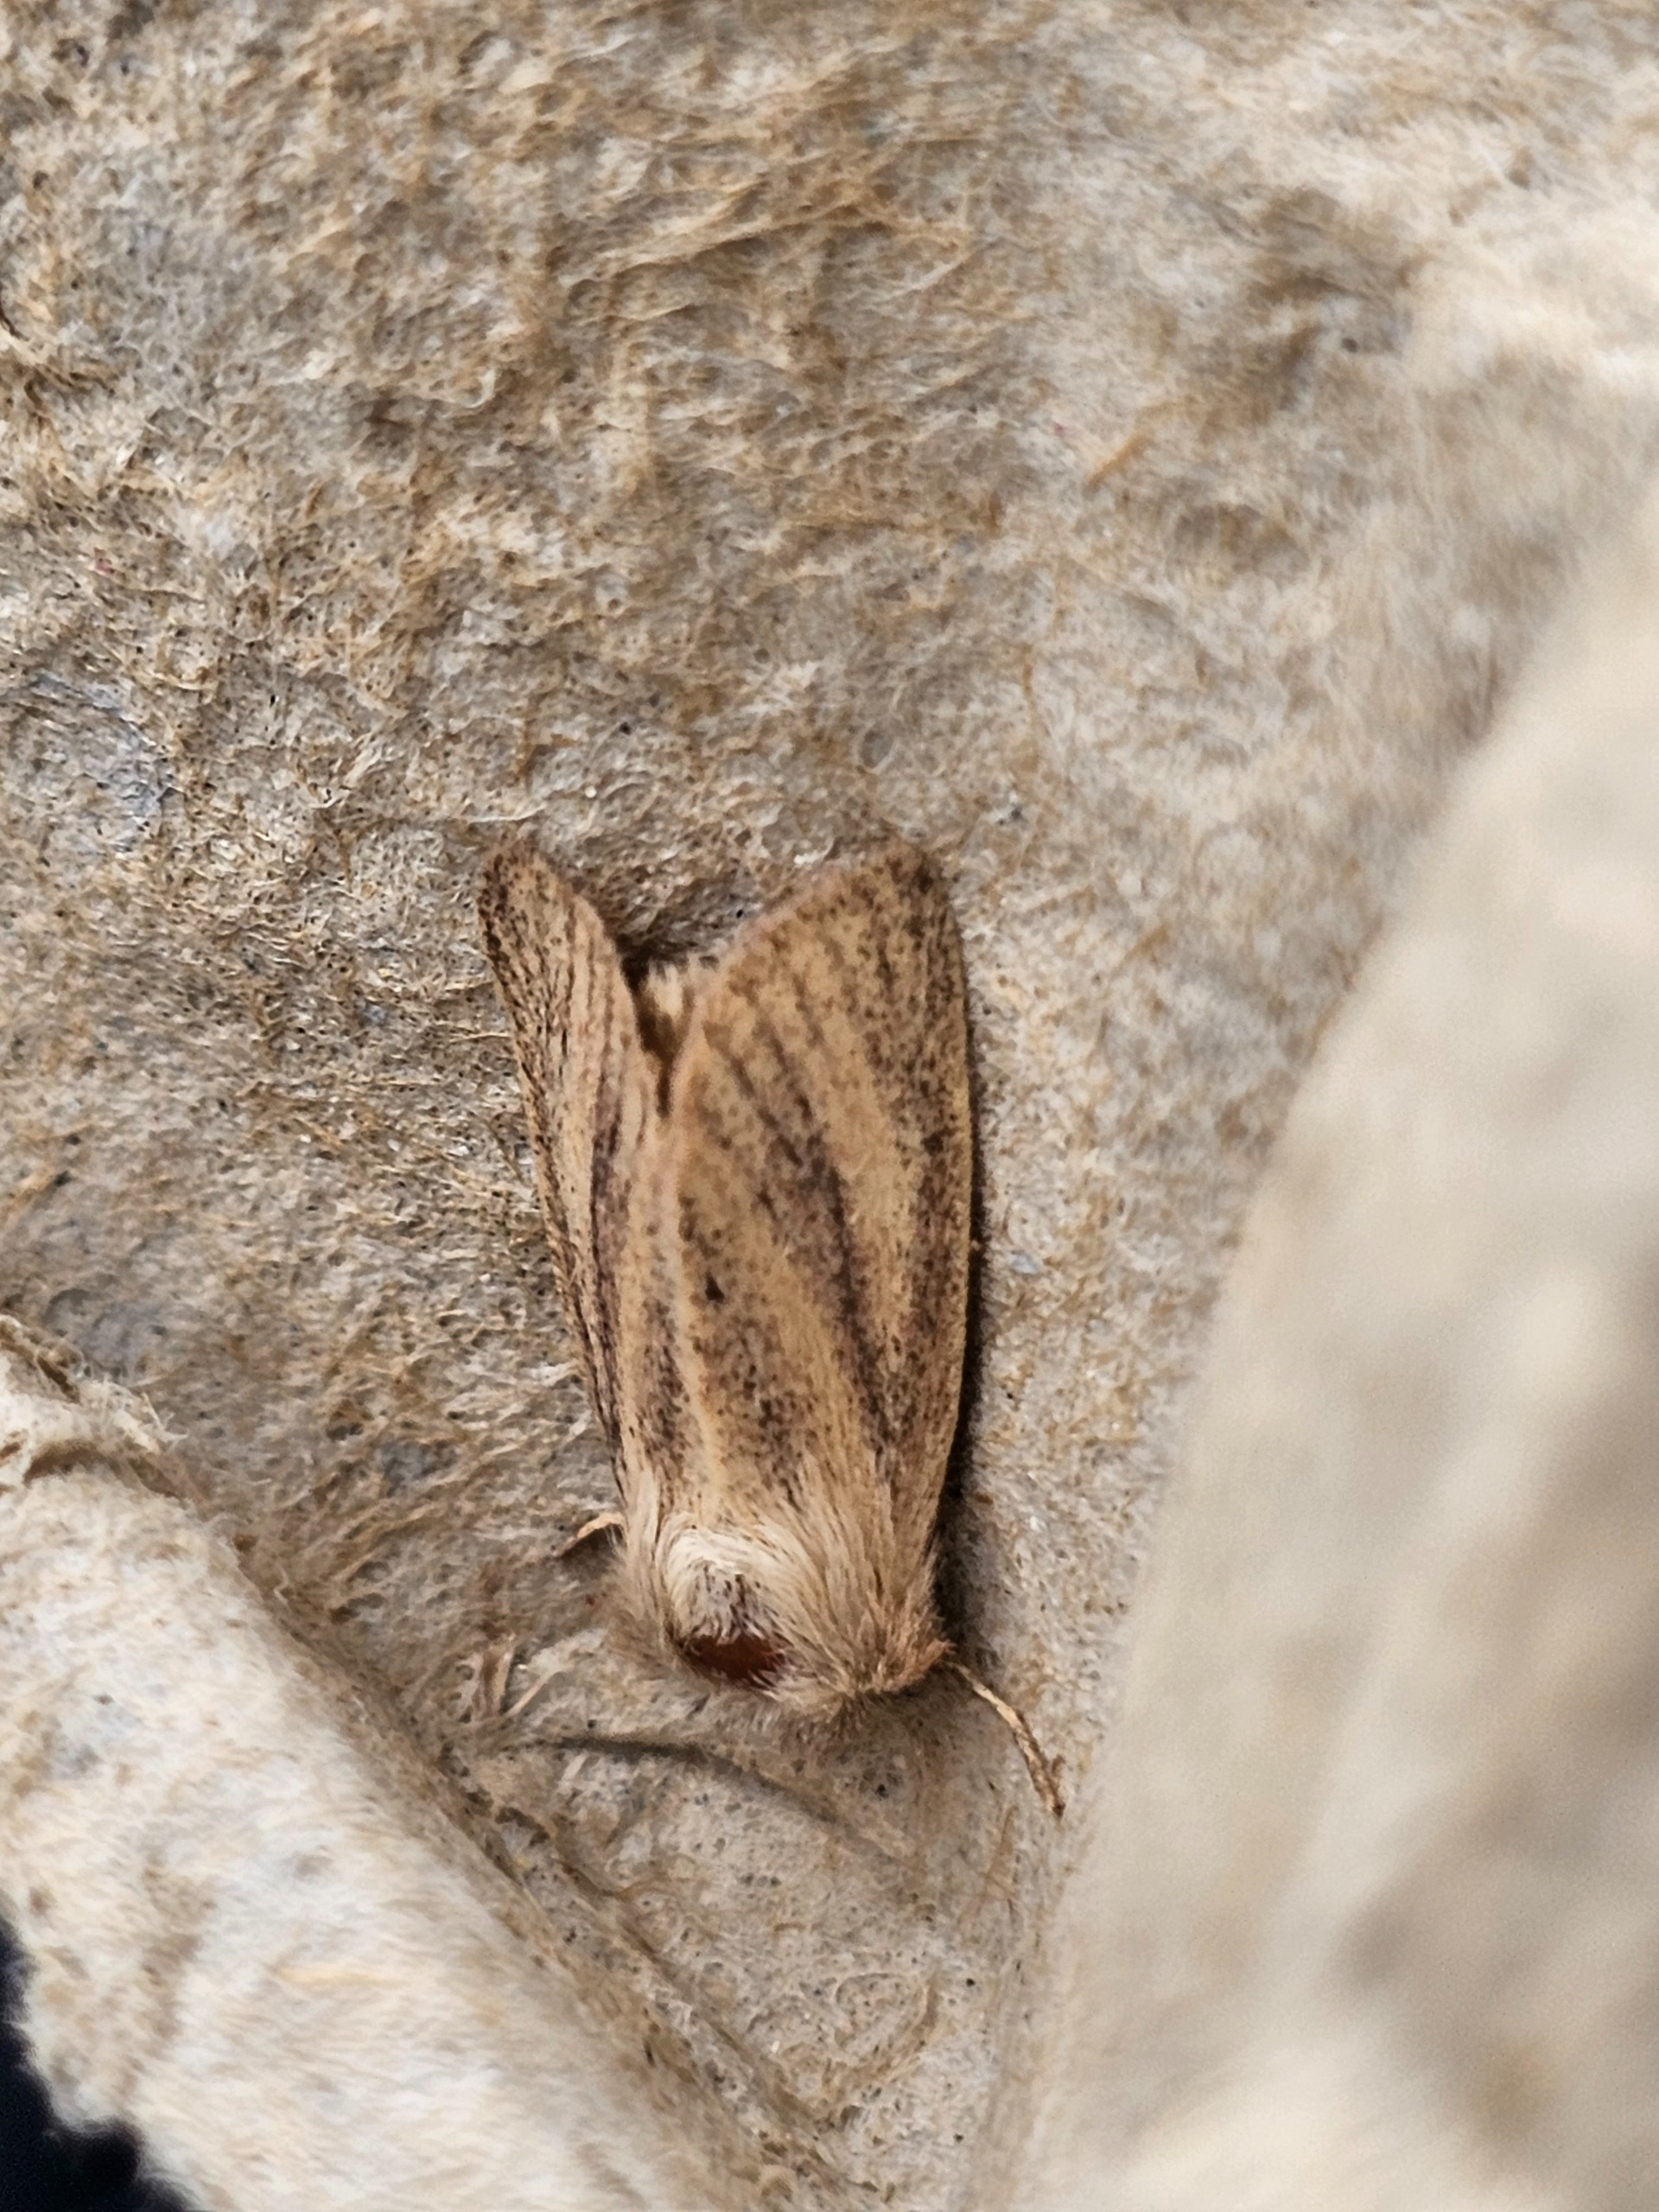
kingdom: Animalia
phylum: Arthropoda
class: Insecta
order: Lepidoptera
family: Noctuidae
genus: Denticucullus
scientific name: Denticucullus pygmina
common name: Lille starugle
